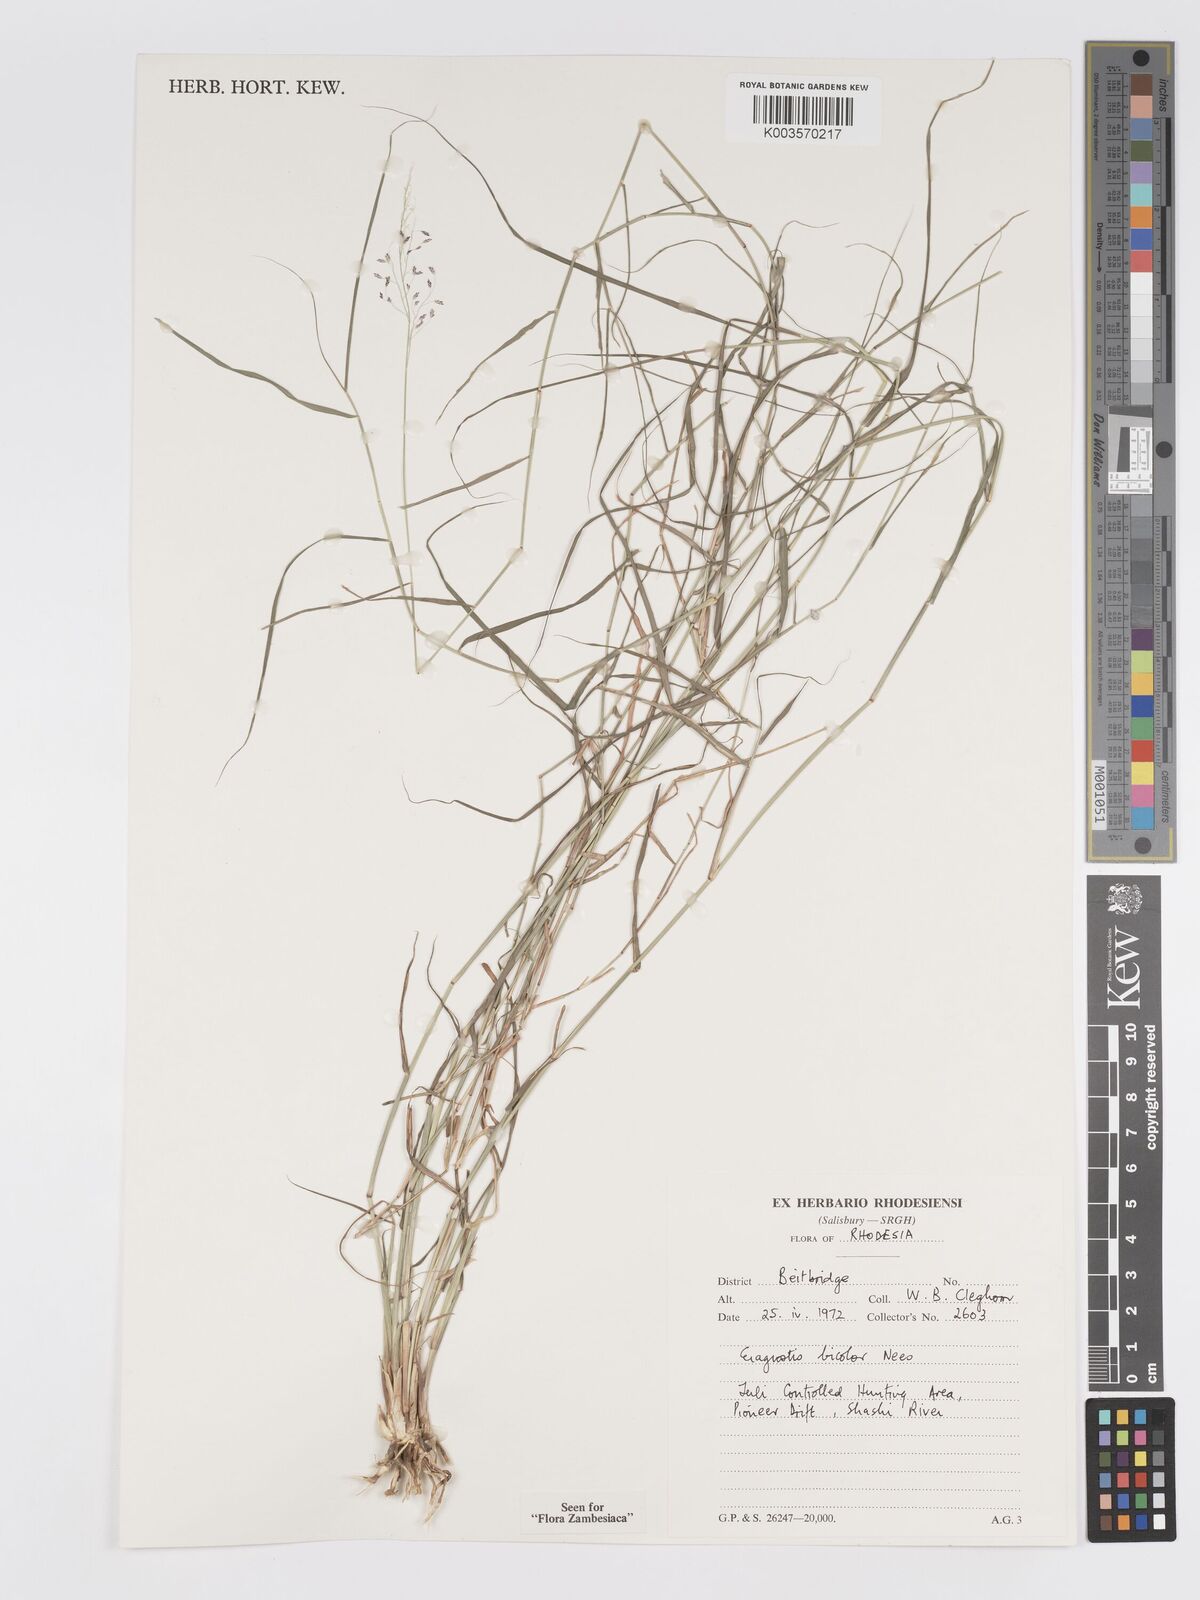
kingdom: Plantae
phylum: Tracheophyta
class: Liliopsida
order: Poales
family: Poaceae
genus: Eragrostis
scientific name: Eragrostis bicolor
